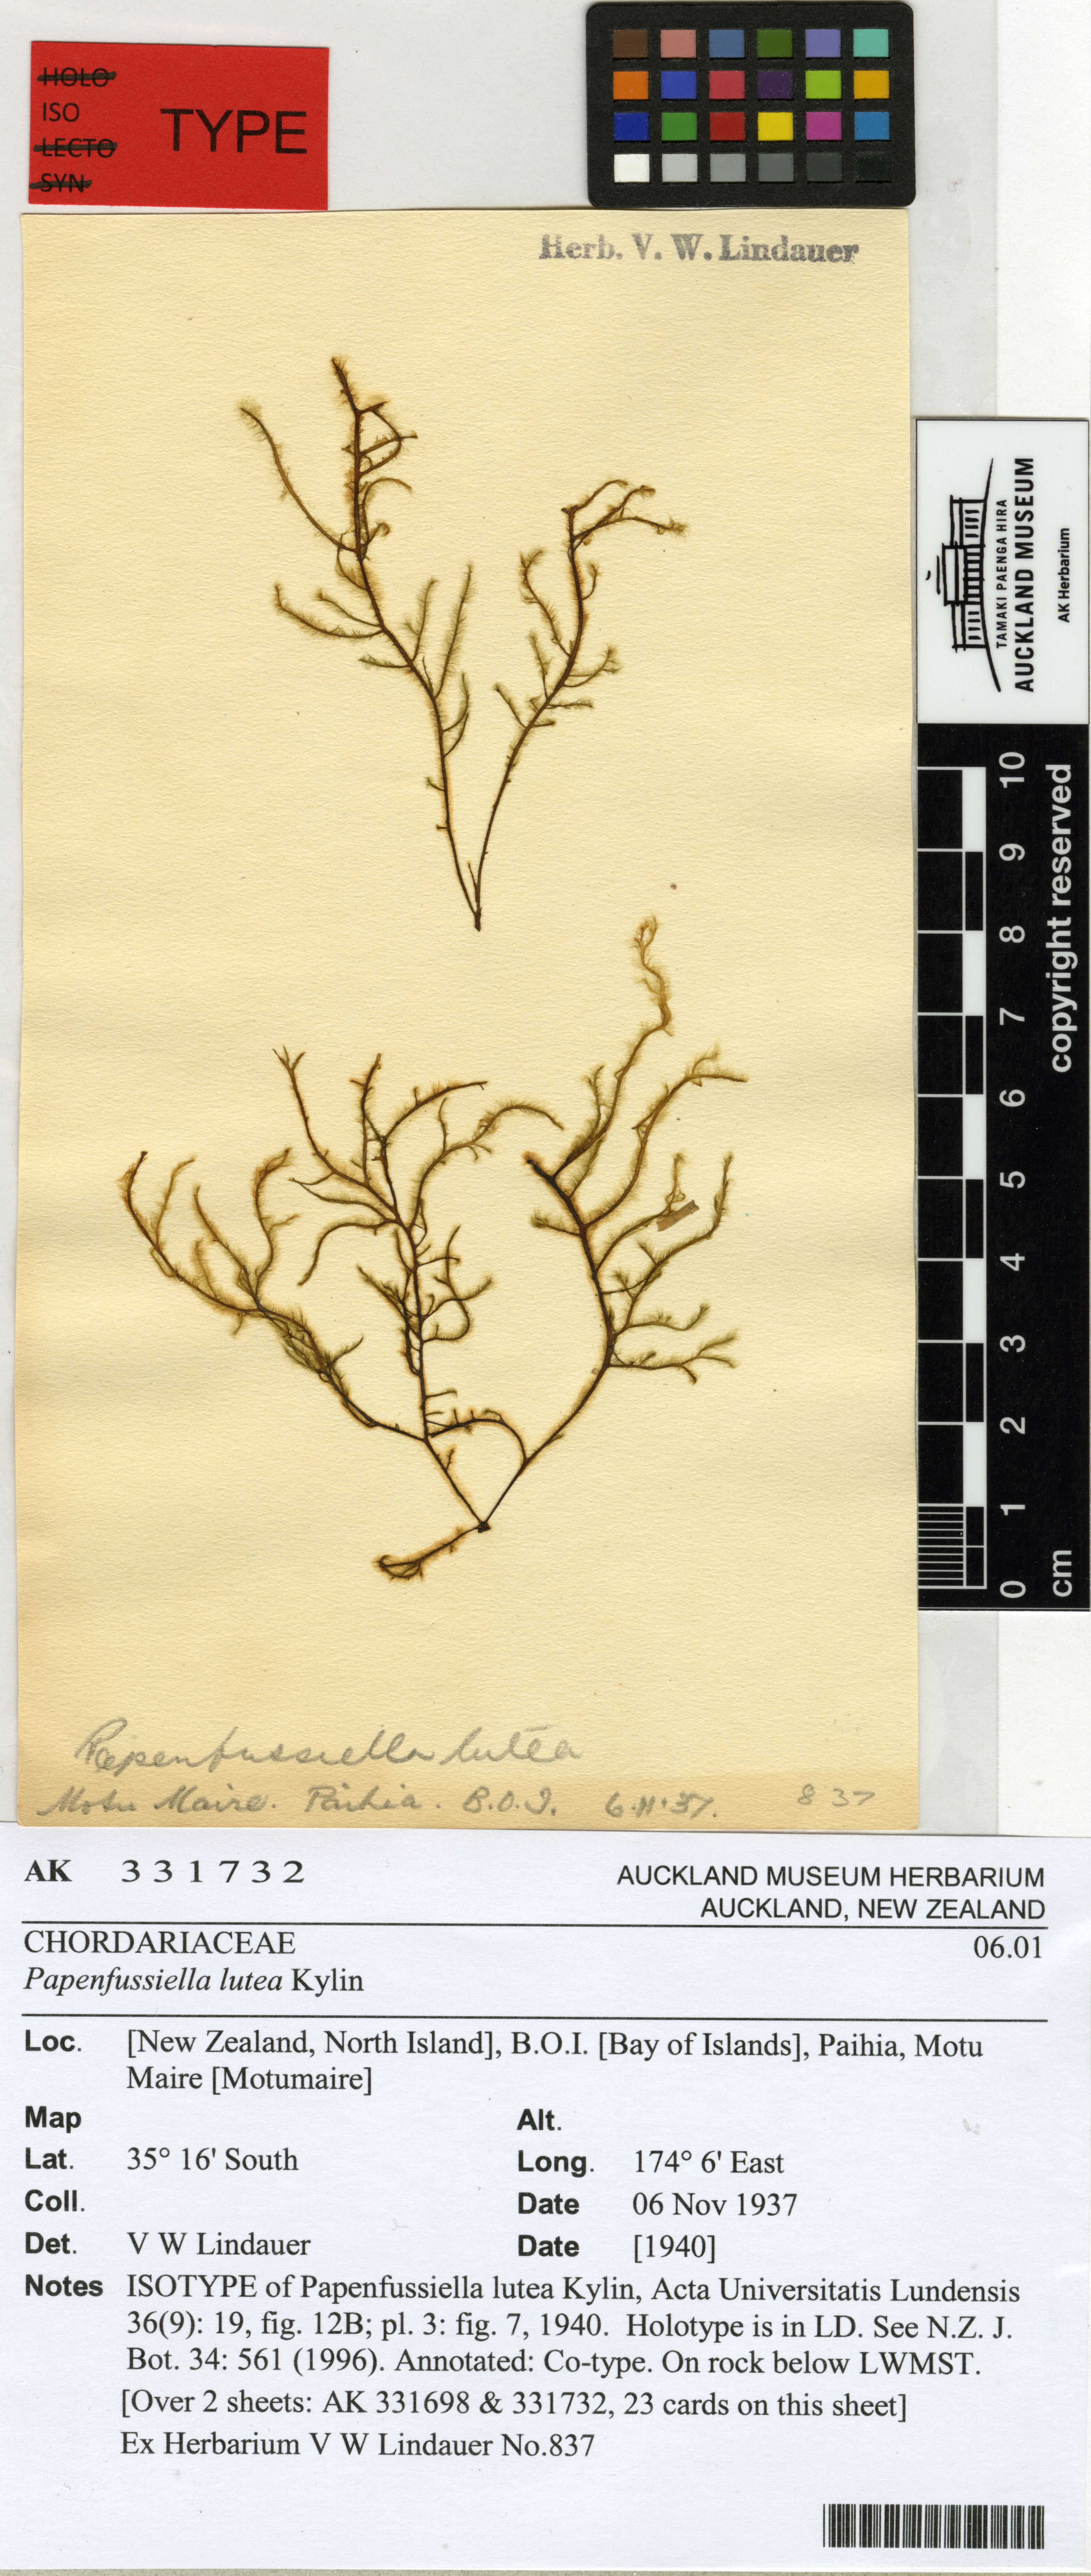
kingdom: Chromista
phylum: Ochrophyta
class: Phaeophyceae
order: Ectocarpales
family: Chordariaceae
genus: Papenfussiella
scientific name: Papenfussiella lutea
